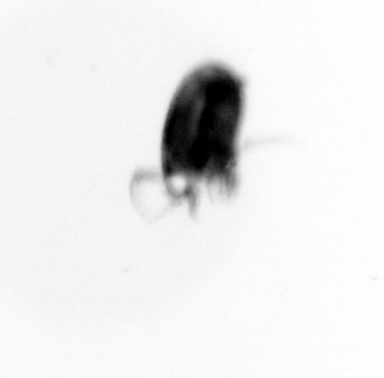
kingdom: Animalia
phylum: Arthropoda
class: Copepoda
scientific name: Copepoda
